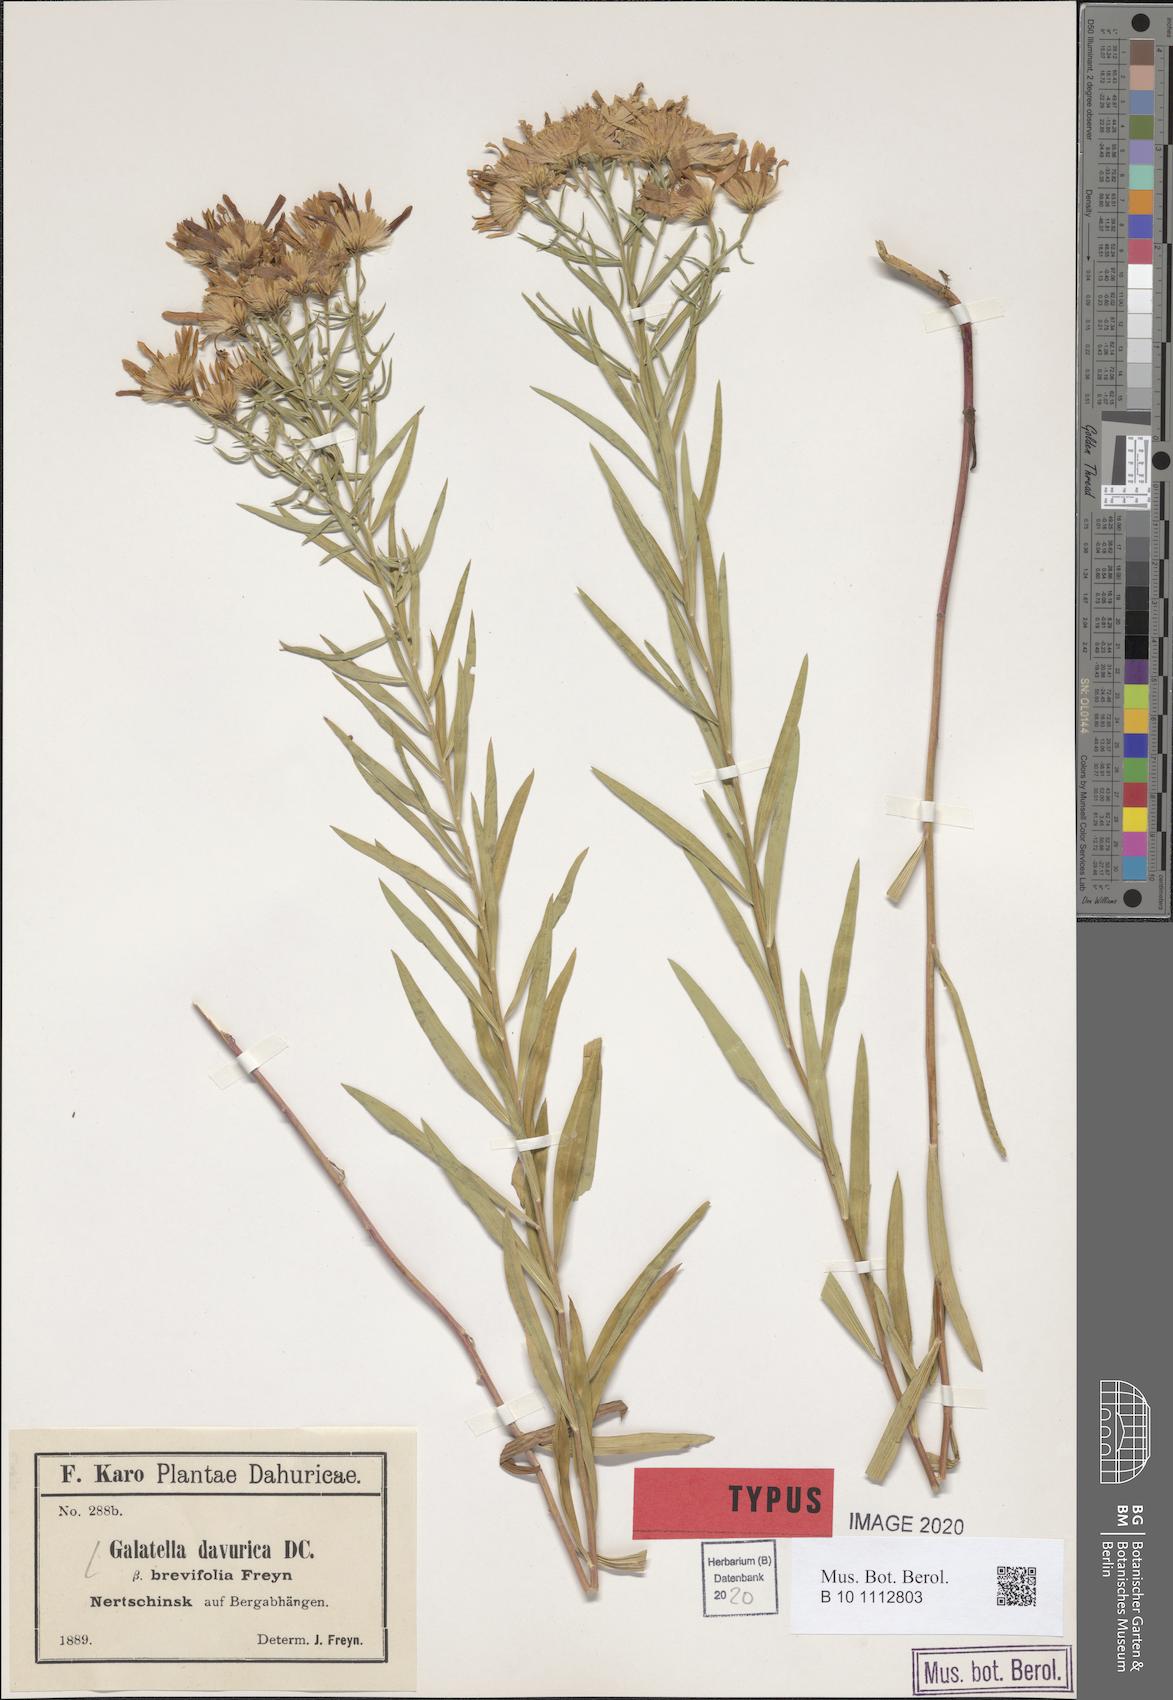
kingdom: Plantae
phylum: Tracheophyta
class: Magnoliopsida
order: Asterales
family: Asteraceae
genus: Galatella
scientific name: Galatella dahurica
